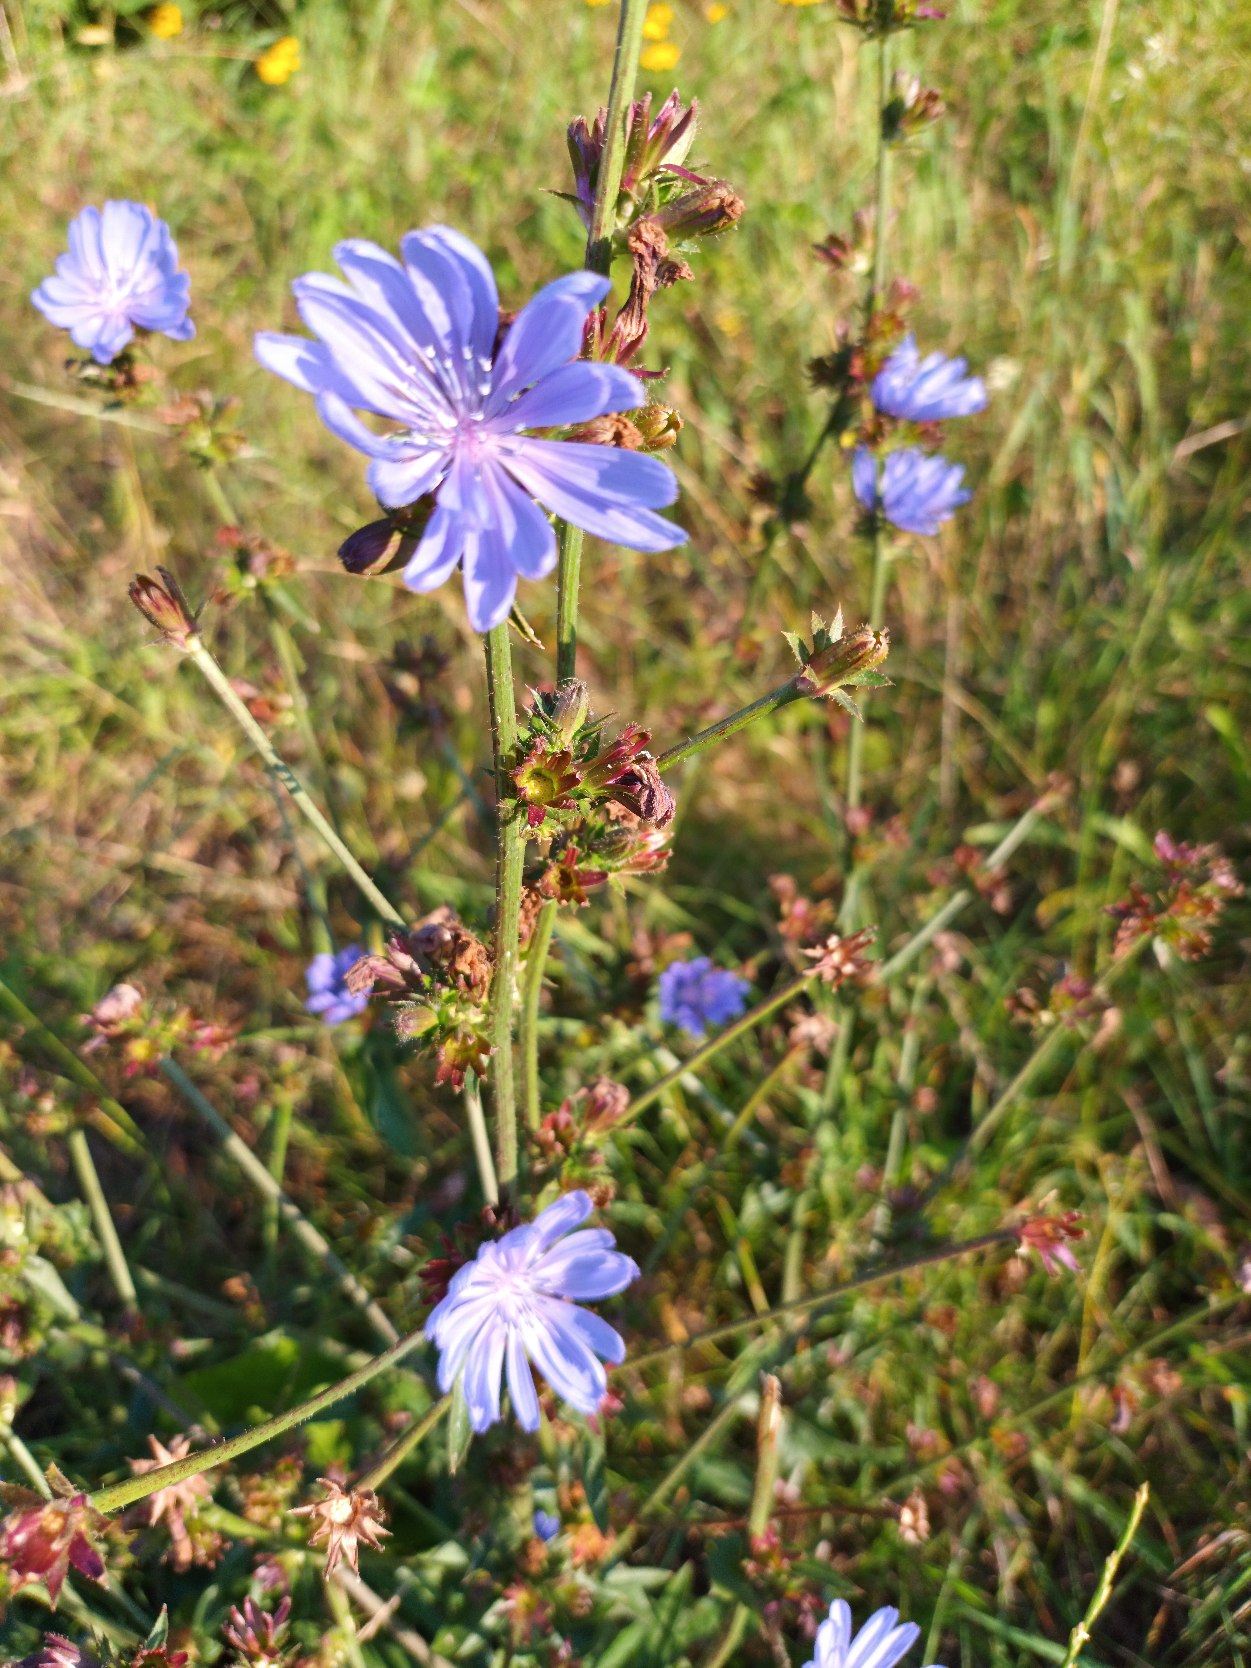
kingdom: Plantae
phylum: Tracheophyta
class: Magnoliopsida
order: Asterales
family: Asteraceae
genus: Cichorium
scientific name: Cichorium intybus
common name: Cikorie
